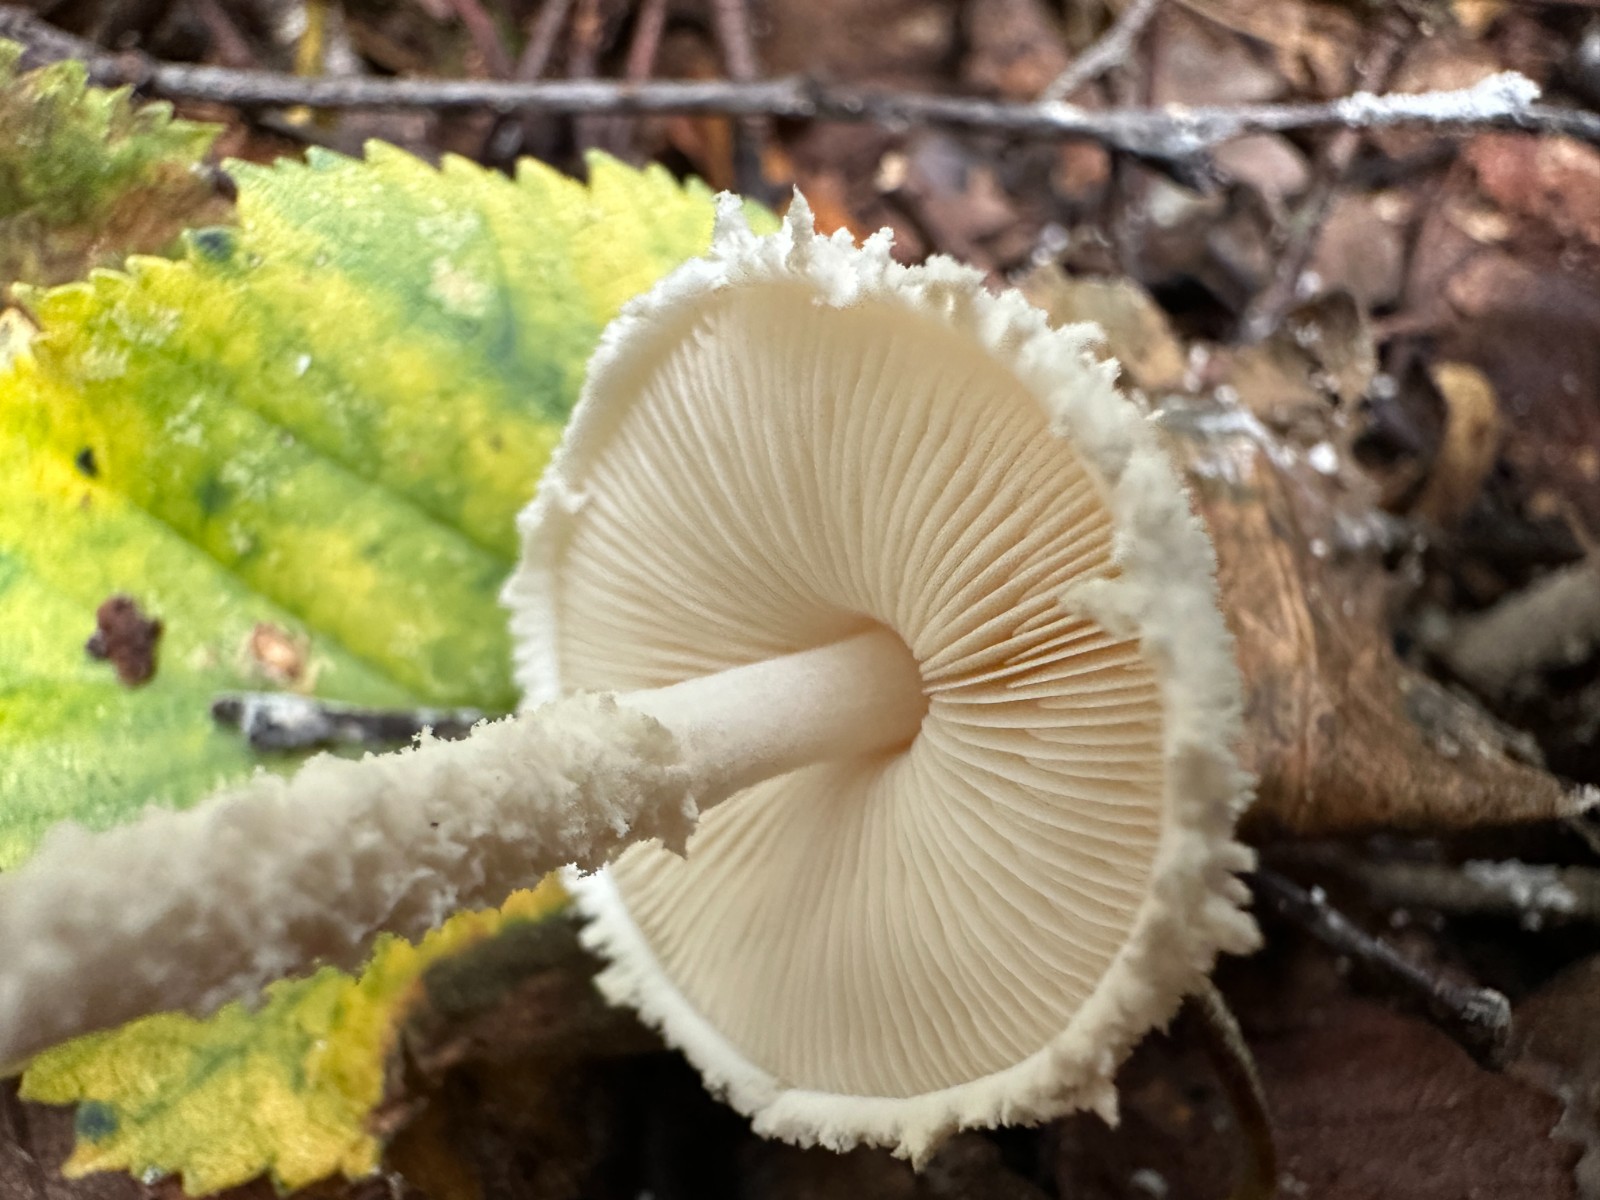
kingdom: Fungi
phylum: Basidiomycota
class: Agaricomycetes
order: Agaricales
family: Agaricaceae
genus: Cystolepiota
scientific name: Cystolepiota adulterina
